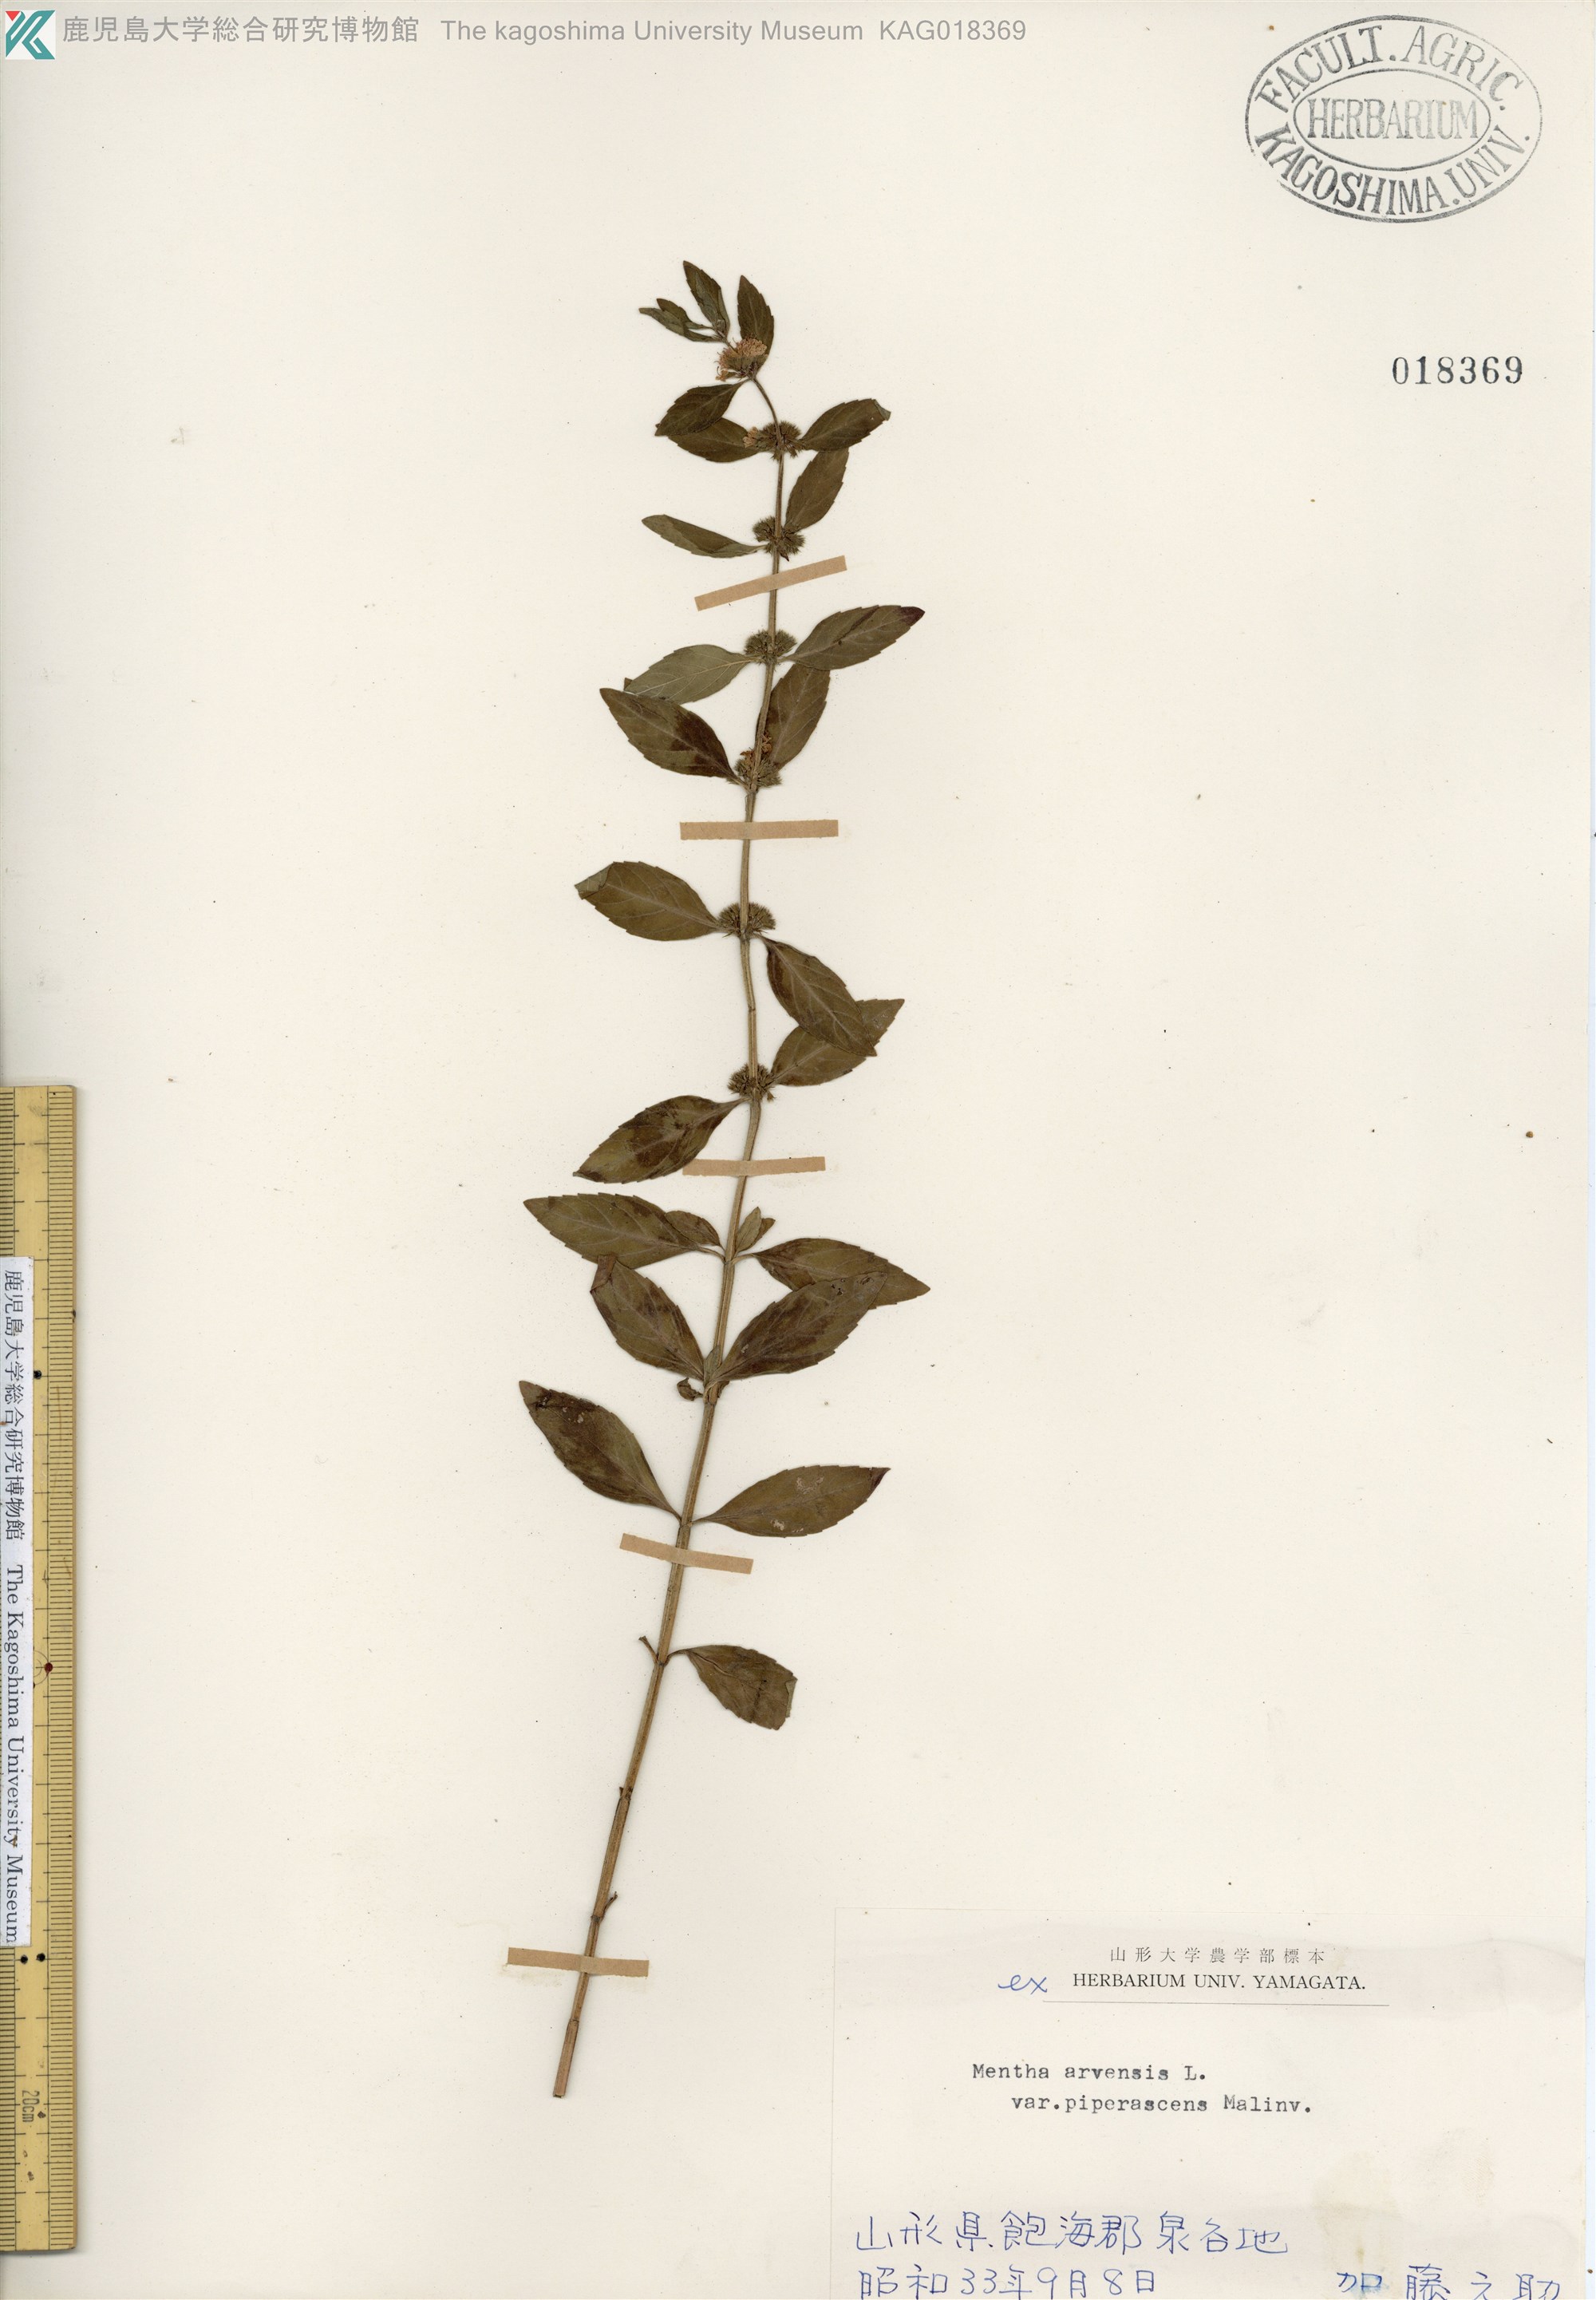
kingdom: Plantae
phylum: Tracheophyta
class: Magnoliopsida
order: Lamiales
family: Lamiaceae
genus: Mentha
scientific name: Mentha canadensis
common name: ハッカ
